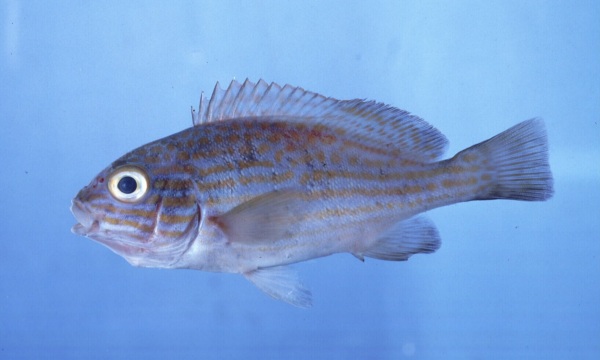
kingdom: Animalia
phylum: Chordata
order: Perciformes
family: Haemulidae
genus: Plectorhinchus
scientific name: Plectorhinchus flavomaculatus
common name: Netted sweetlips
